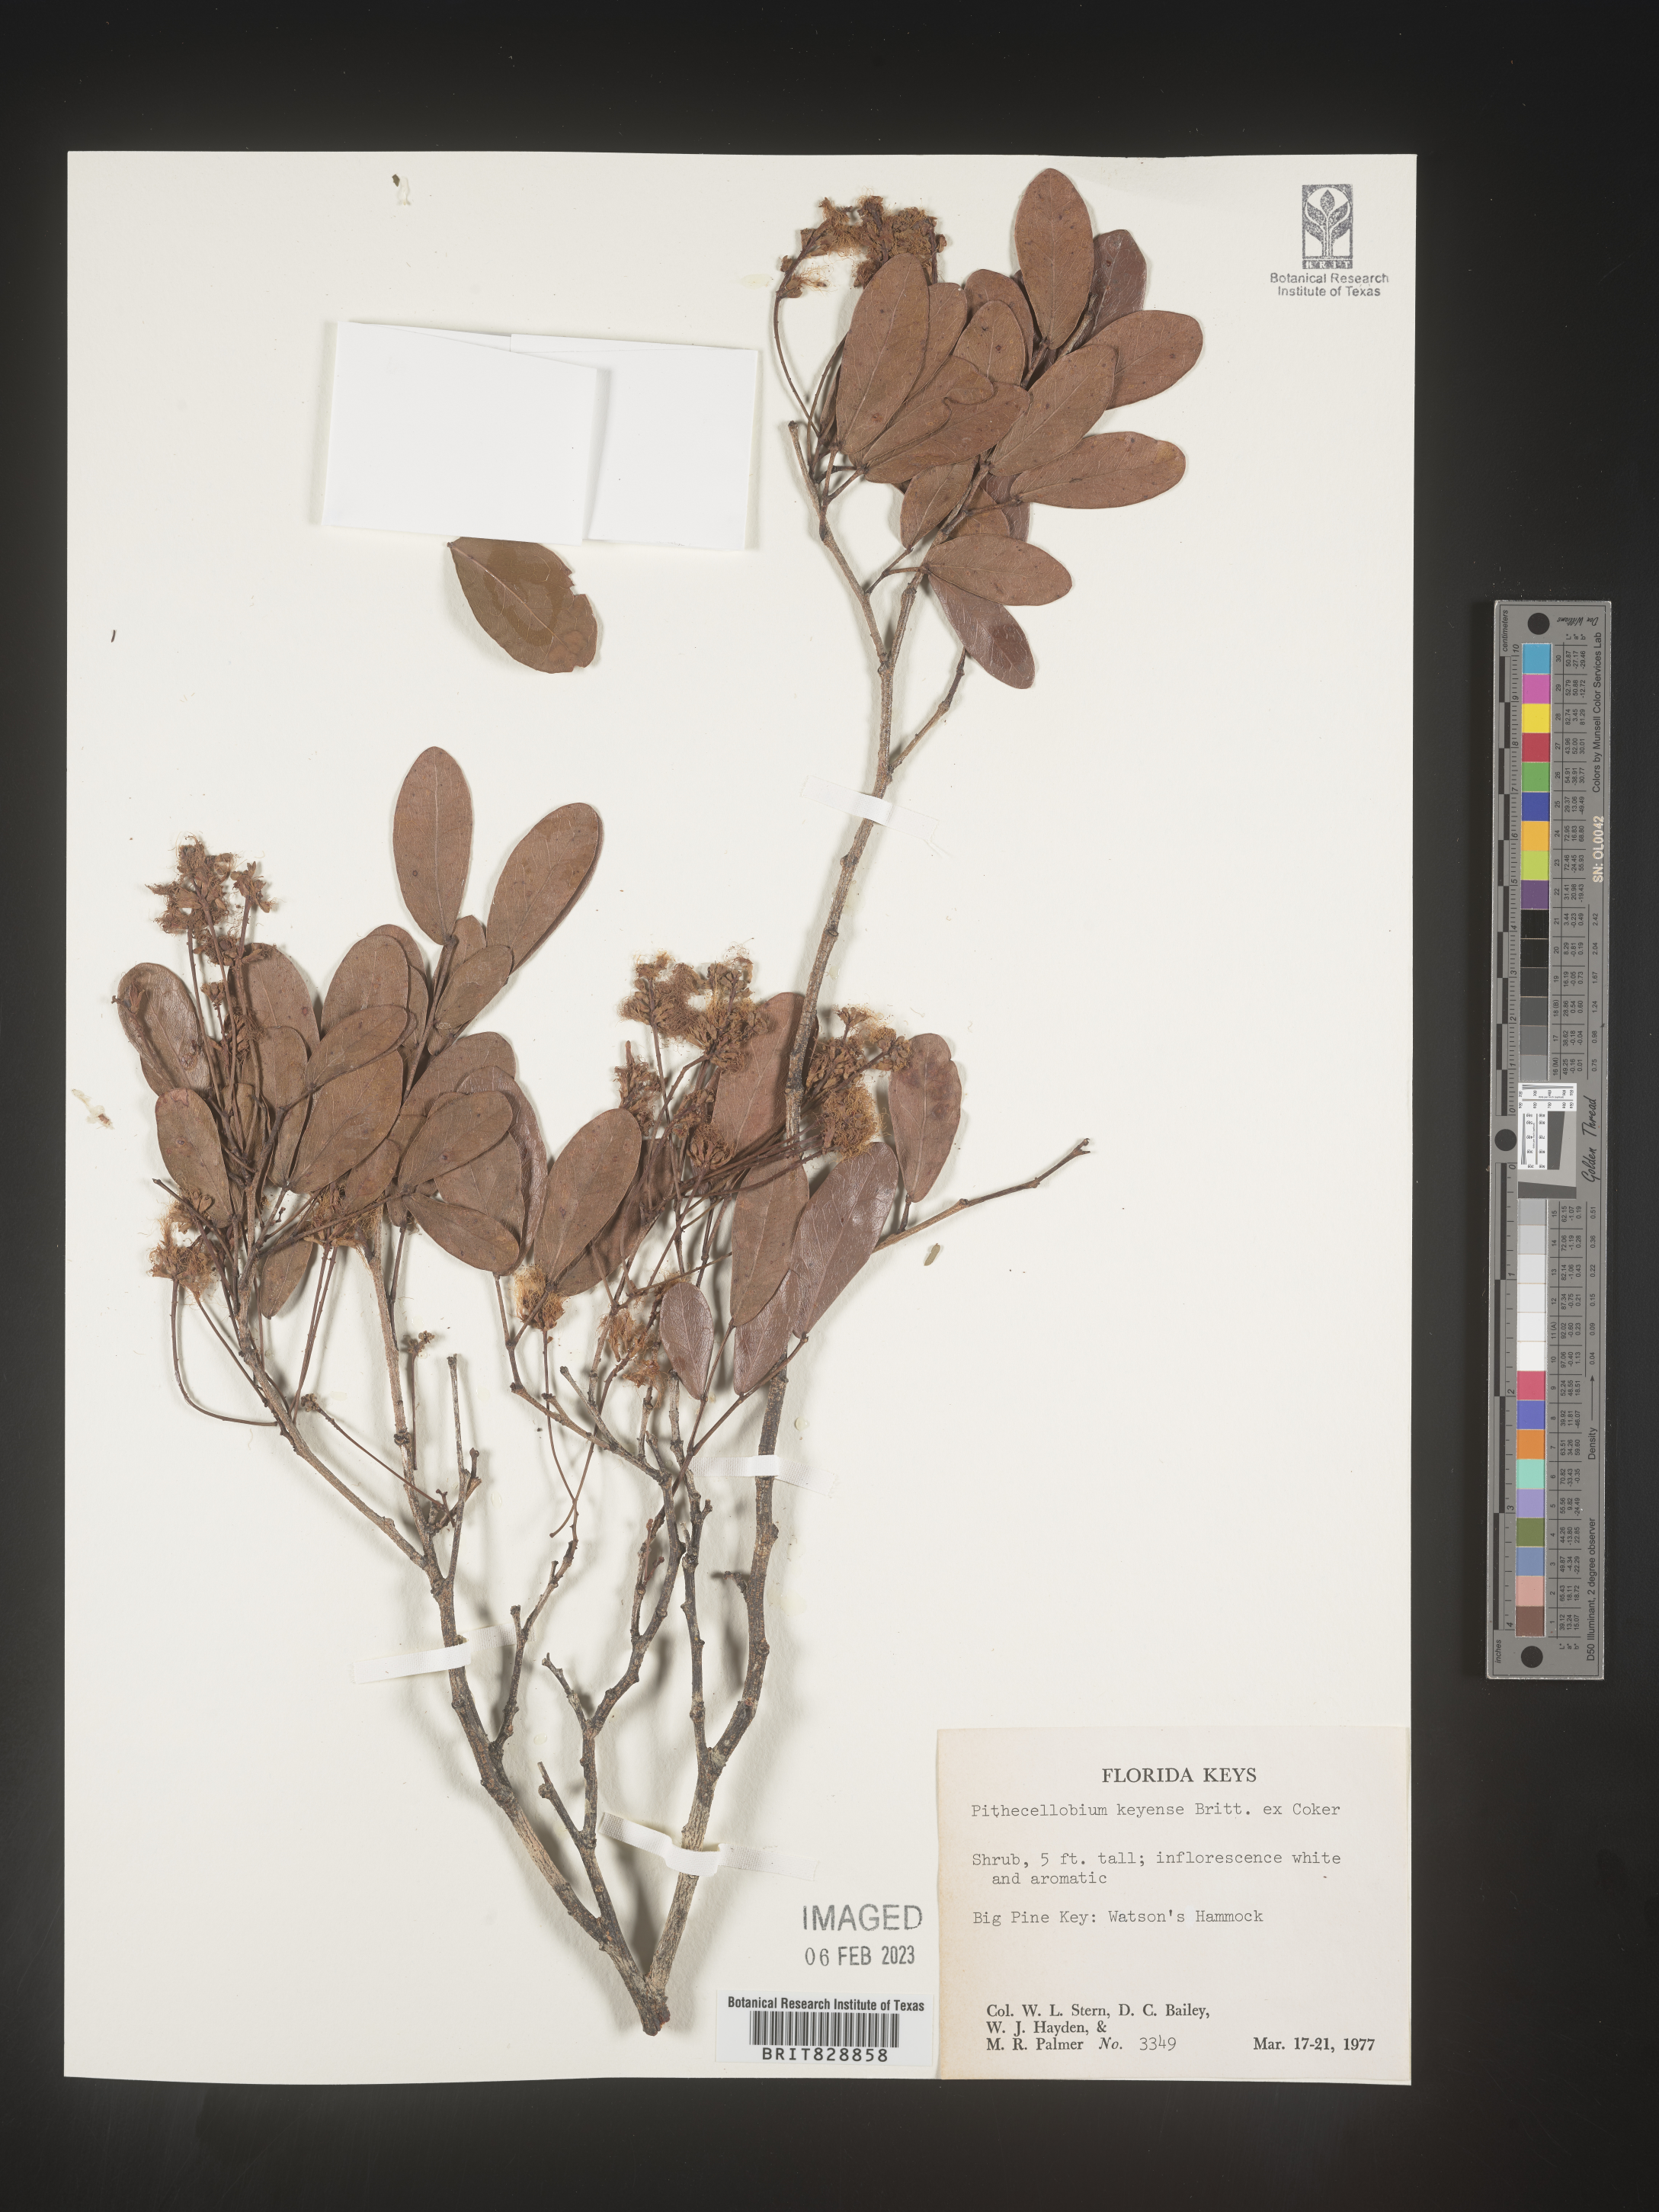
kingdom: Plantae
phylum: Tracheophyta
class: Magnoliopsida
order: Fabales
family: Fabaceae
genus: Pithecellobium
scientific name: Pithecellobium
